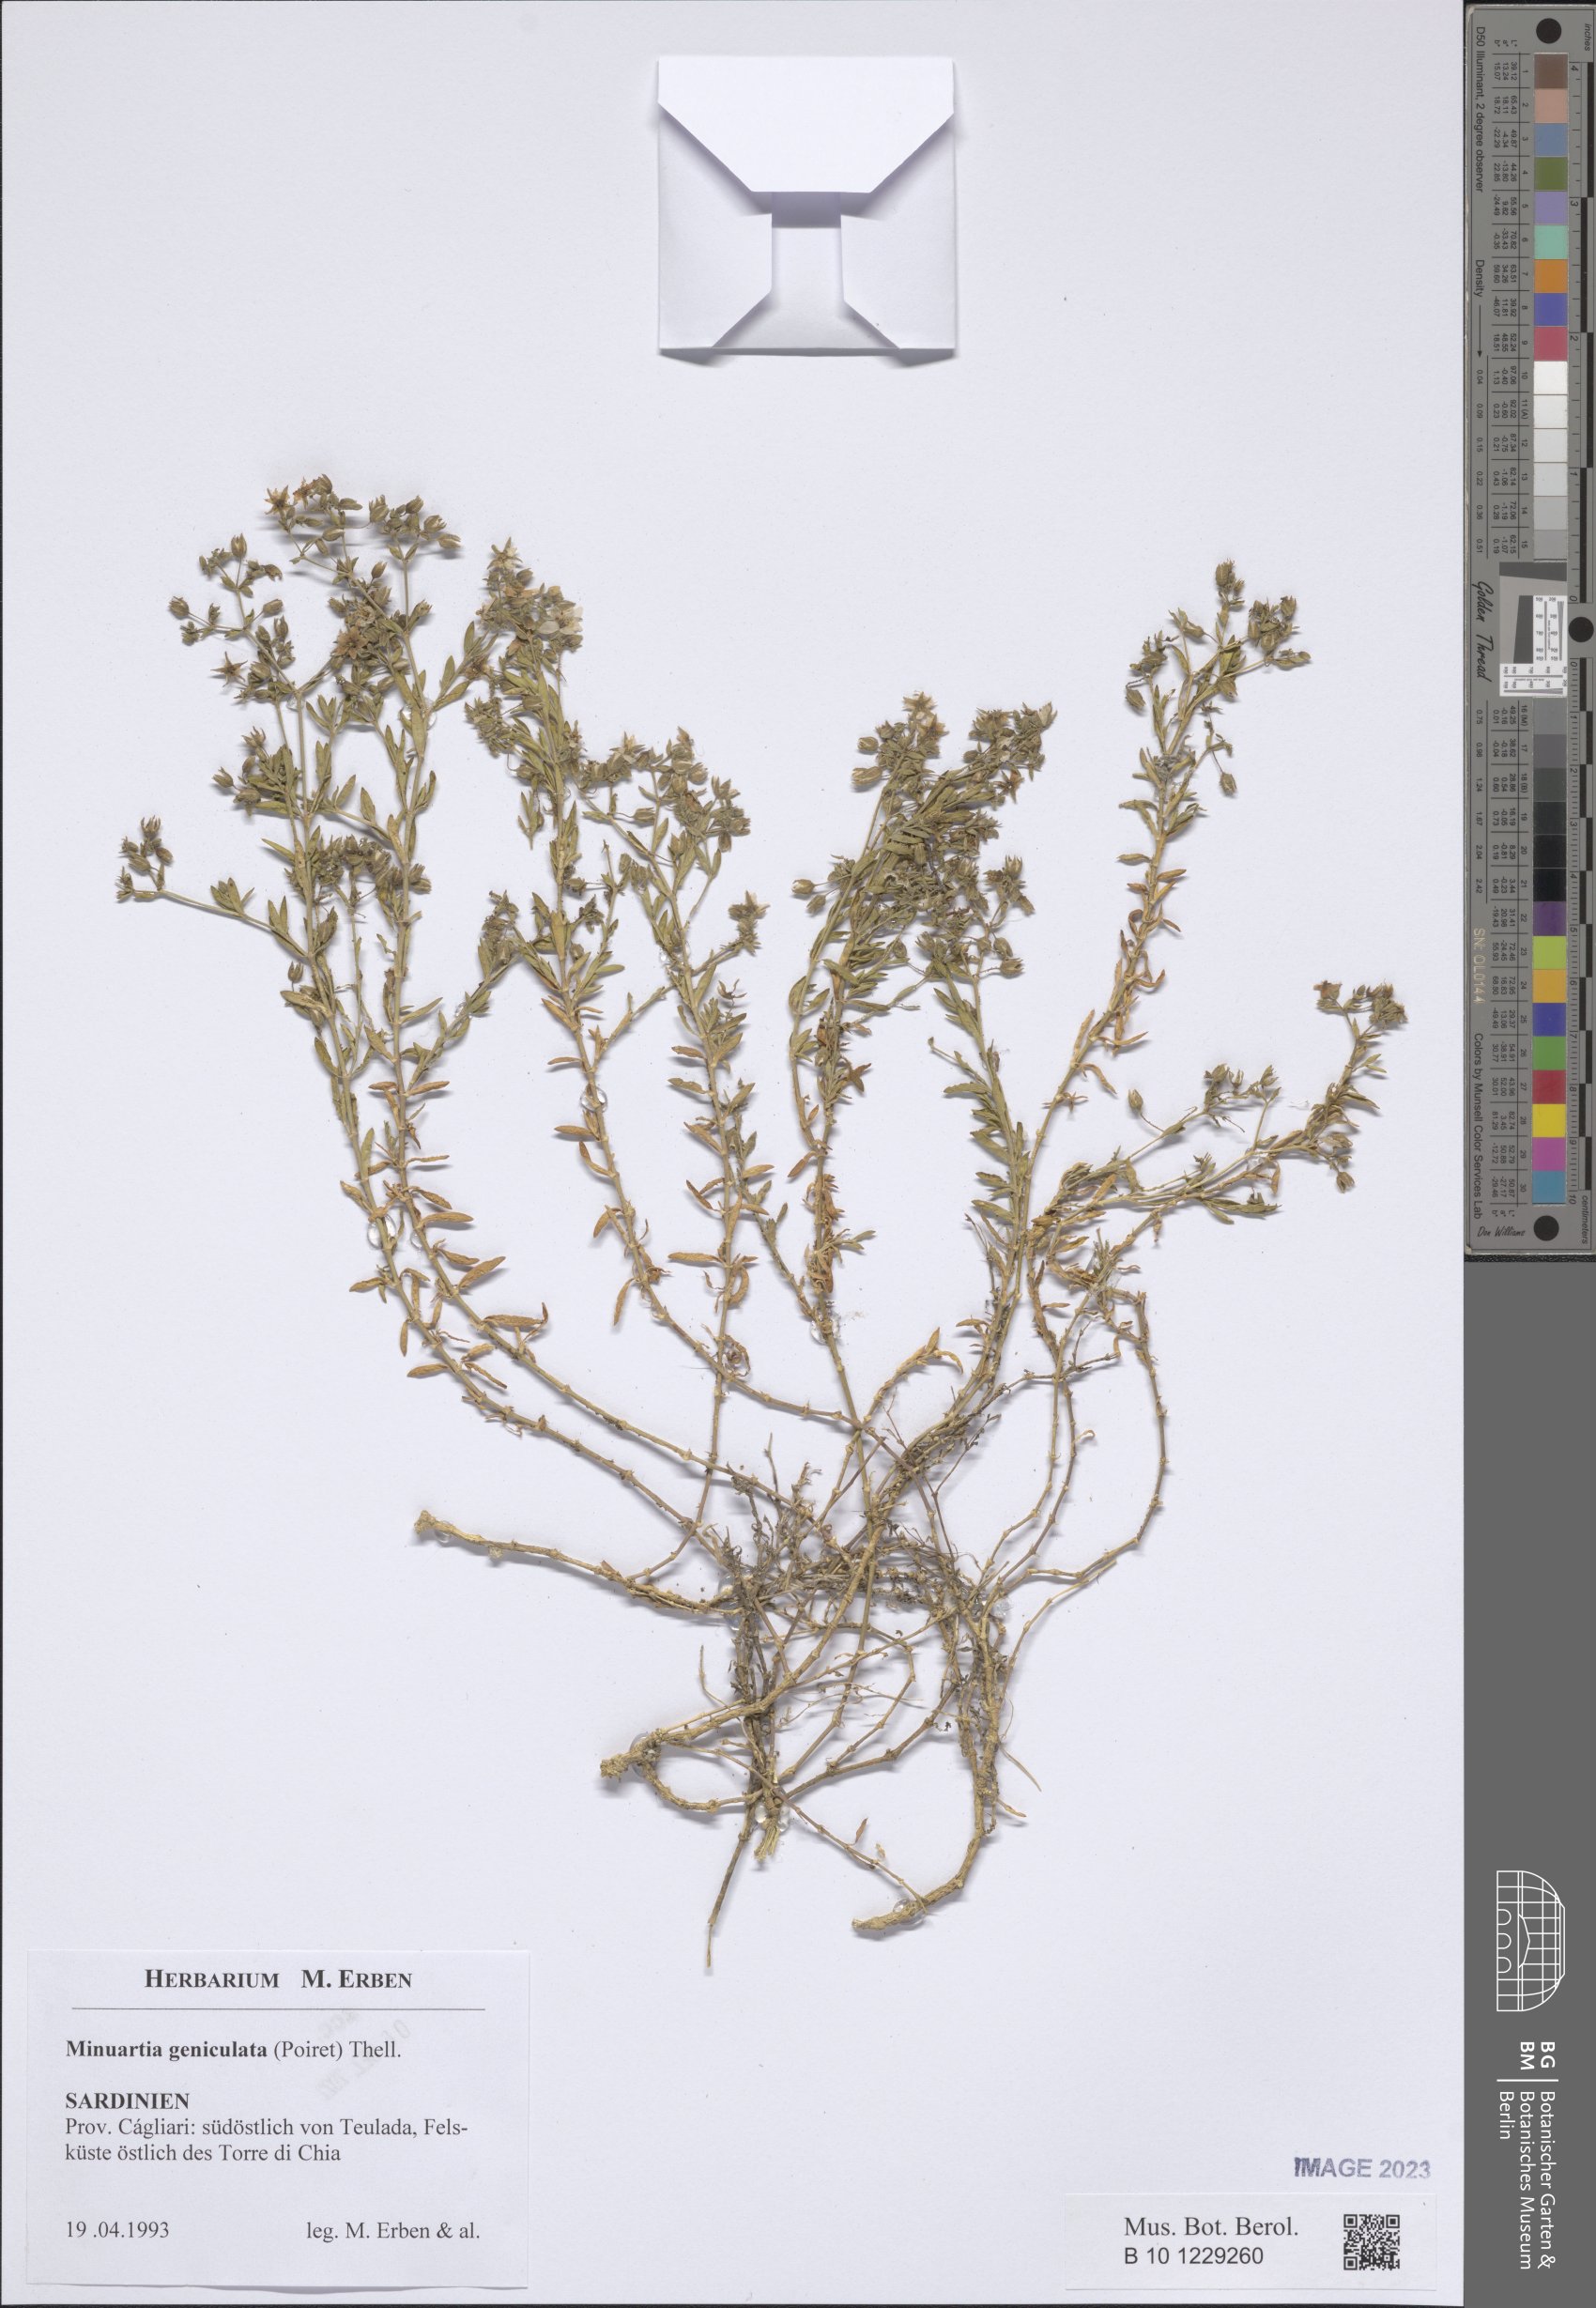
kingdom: Plantae
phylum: Tracheophyta
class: Magnoliopsida
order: Caryophyllales
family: Caryophyllaceae
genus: Rhodalsine
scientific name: Rhodalsine geniculata
